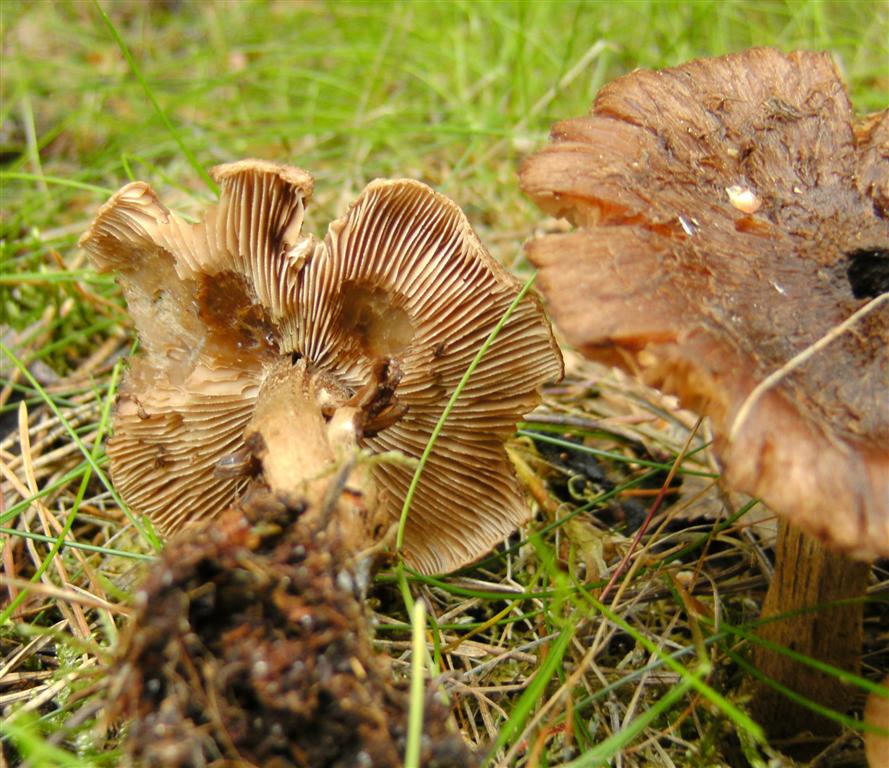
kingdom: Fungi
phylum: Basidiomycota
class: Agaricomycetes
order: Agaricales
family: Inocybaceae
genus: Inocybe
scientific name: Inocybe subcarpta
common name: plantage-trævlhat
